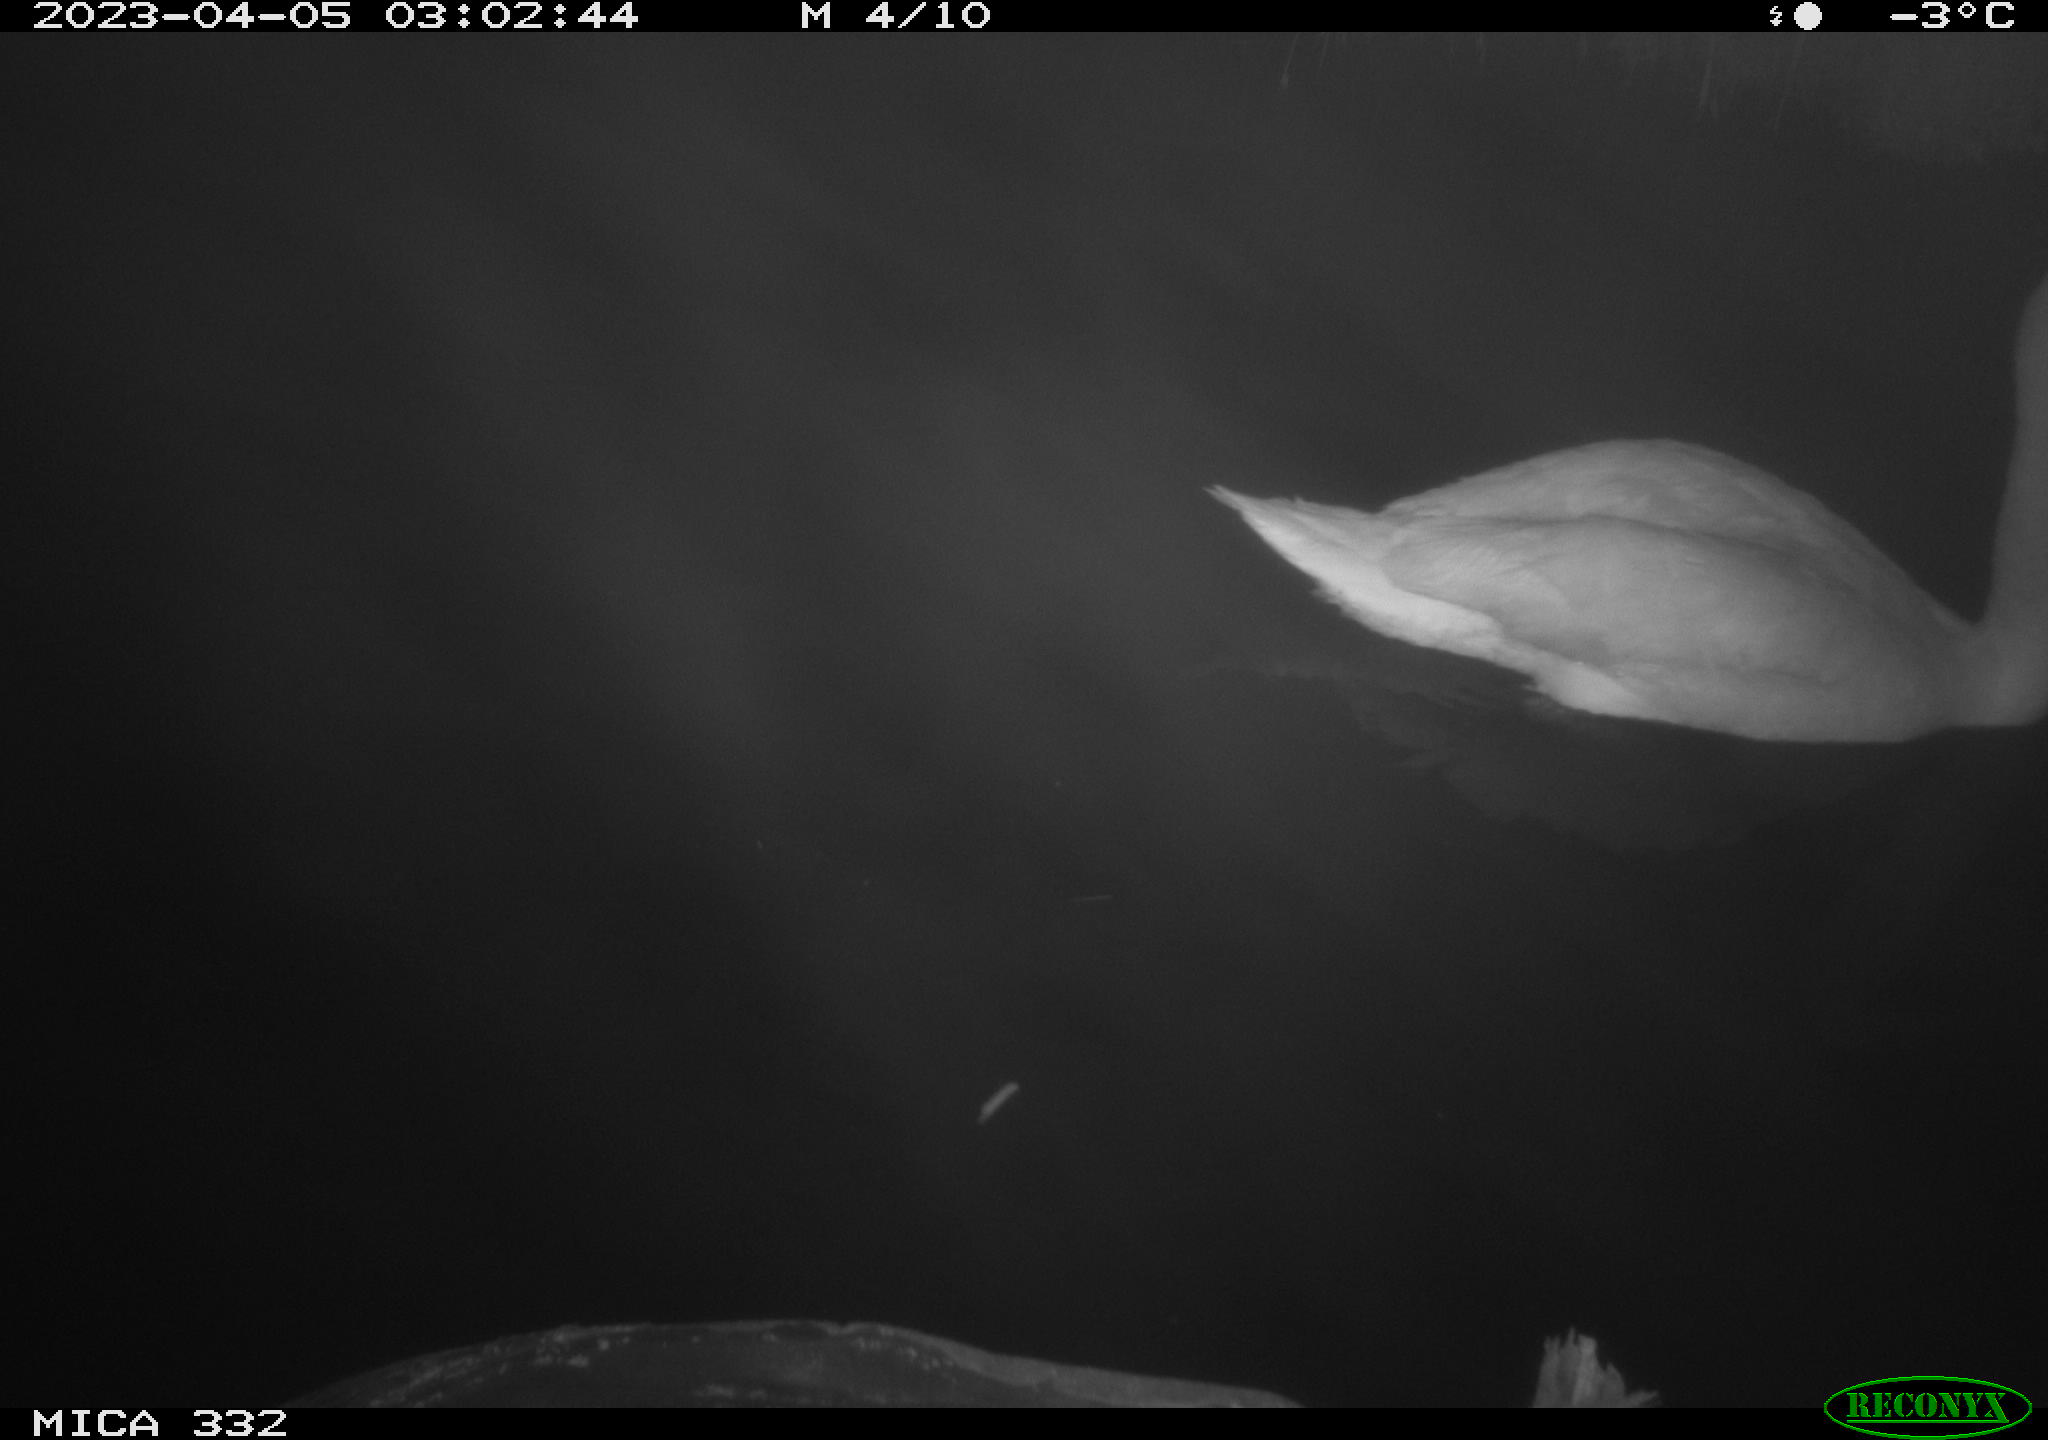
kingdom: Animalia
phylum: Chordata
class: Aves
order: Anseriformes
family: Anatidae
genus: Cygnus
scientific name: Cygnus olor
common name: Mute swan
